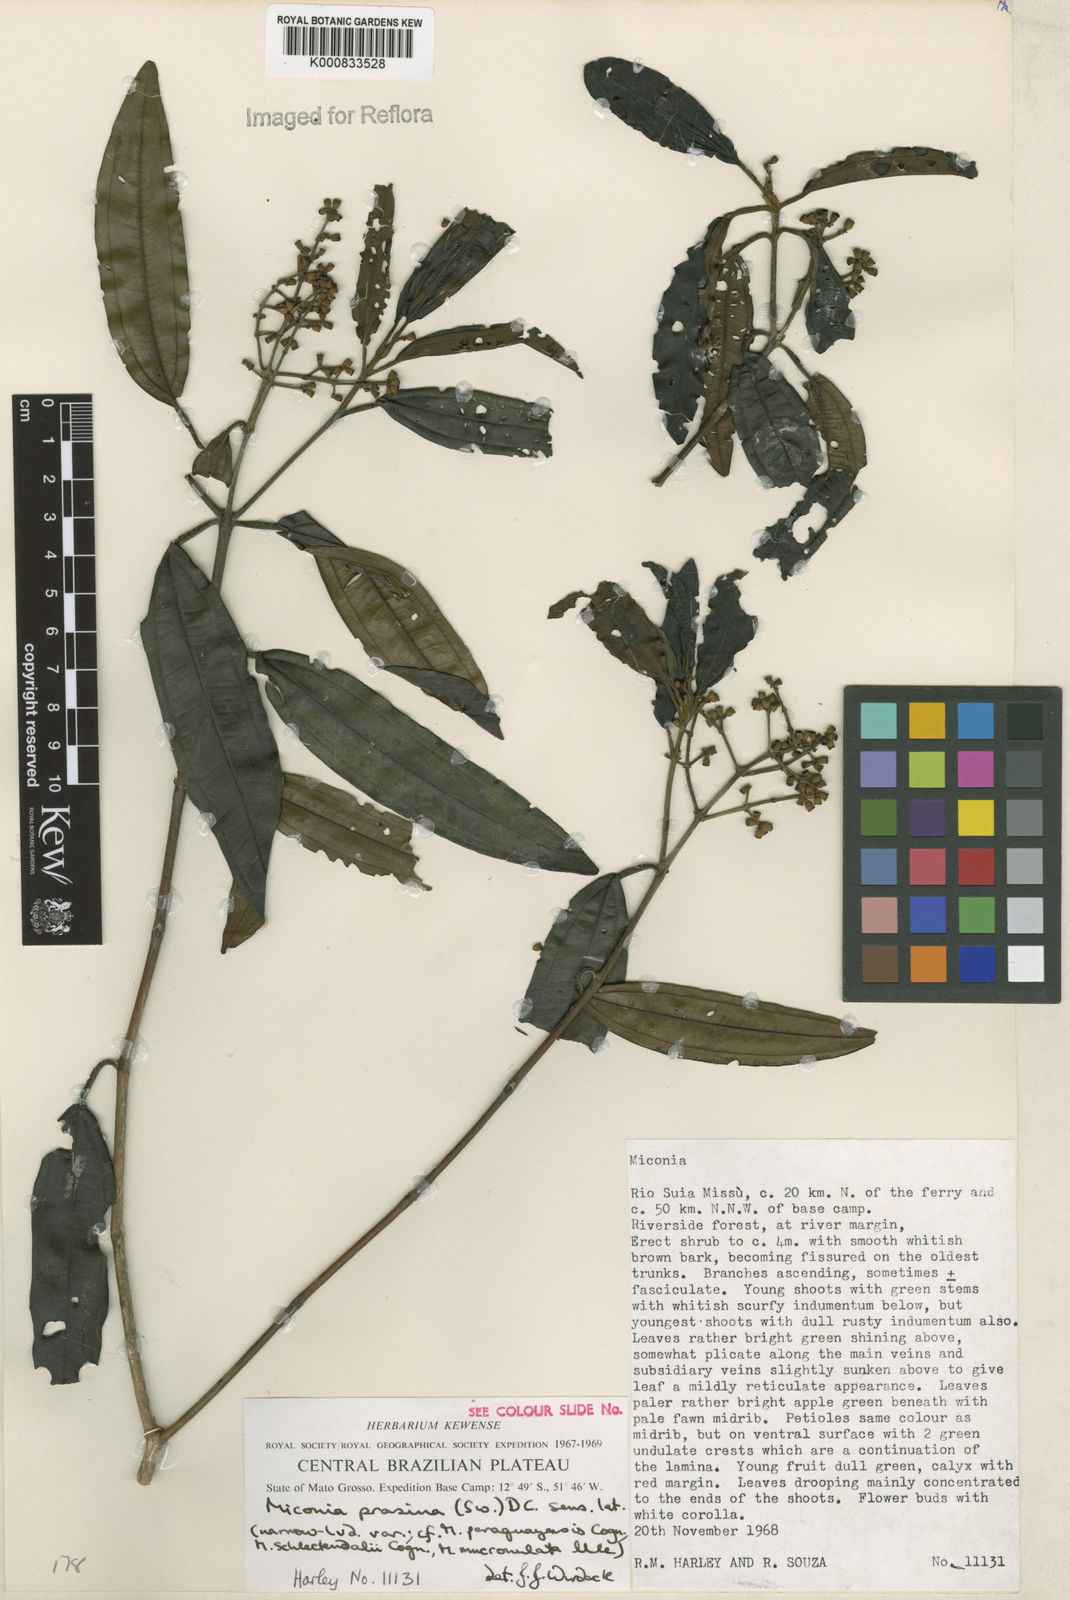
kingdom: Plantae
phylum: Tracheophyta
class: Magnoliopsida
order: Myrtales
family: Melastomataceae
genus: Miconia
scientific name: Miconia prasina
